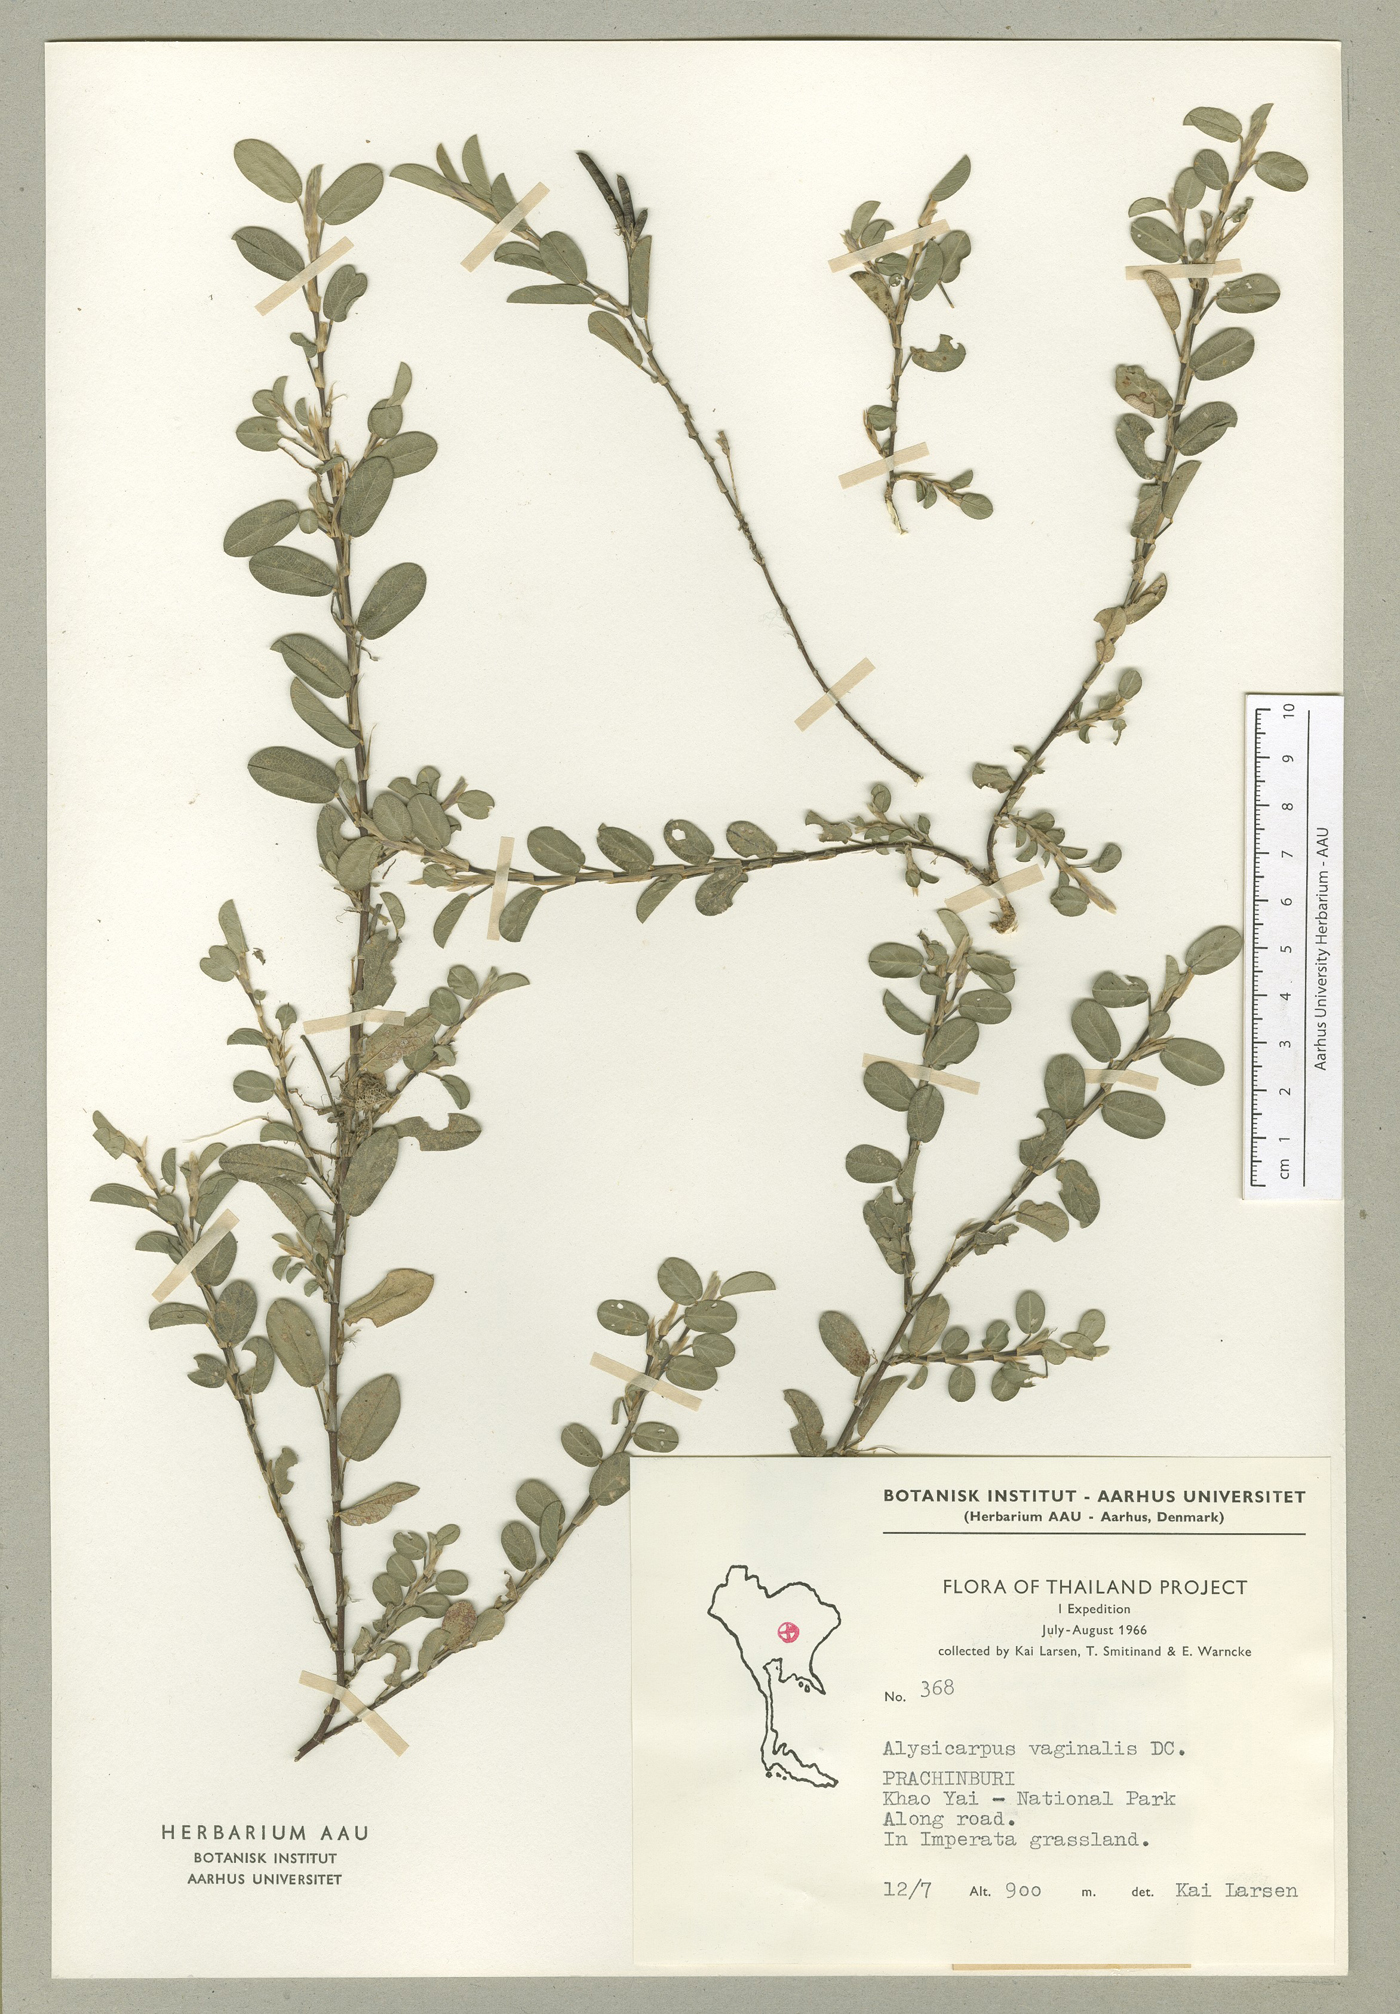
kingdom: Plantae
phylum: Tracheophyta
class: Magnoliopsida
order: Fabales
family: Fabaceae
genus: Alysicarpus
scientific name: Alysicarpus vaginalis
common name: White moneywort
